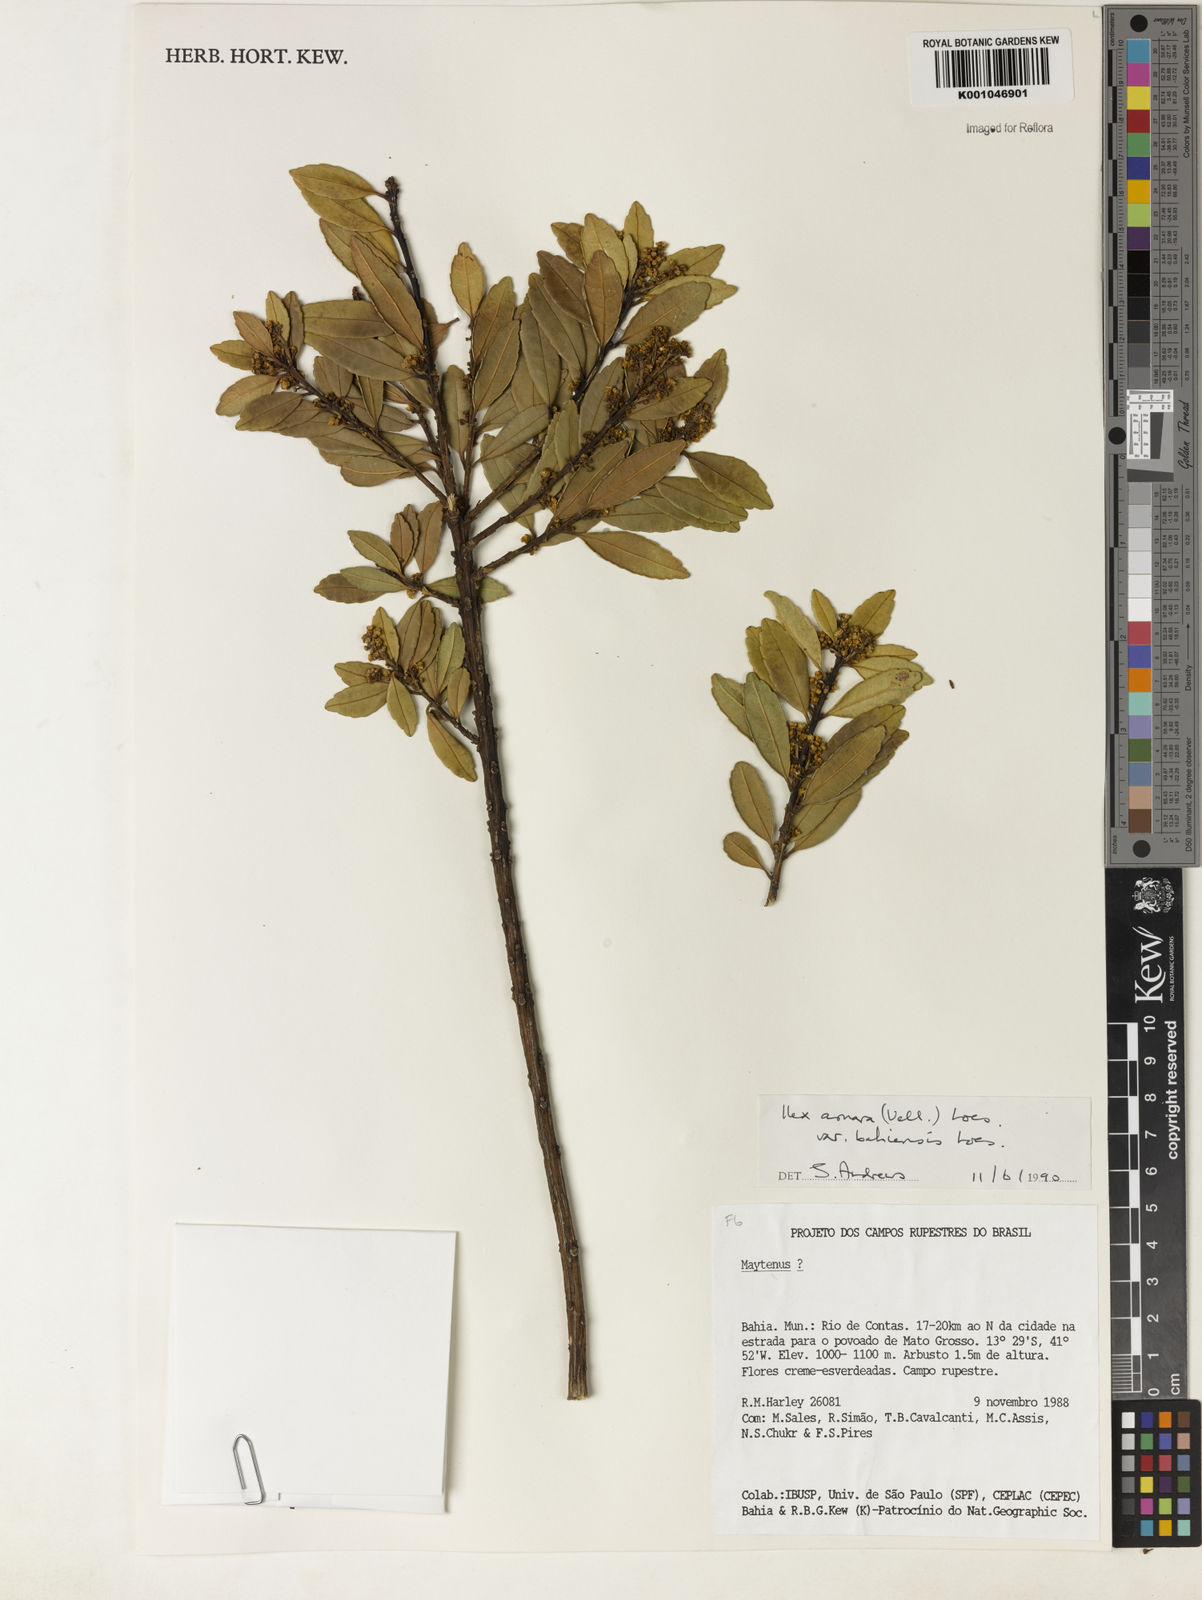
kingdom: Plantae
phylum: Tracheophyta
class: Magnoliopsida
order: Aquifoliales
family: Aquifoliaceae
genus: Ilex
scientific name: Ilex dumosa
